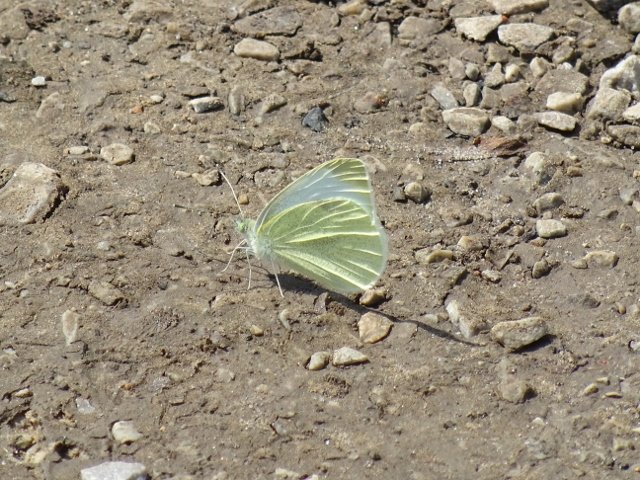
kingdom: Animalia
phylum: Arthropoda
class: Insecta
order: Lepidoptera
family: Pieridae
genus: Pieris
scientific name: Pieris rapae
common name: Cabbage White
